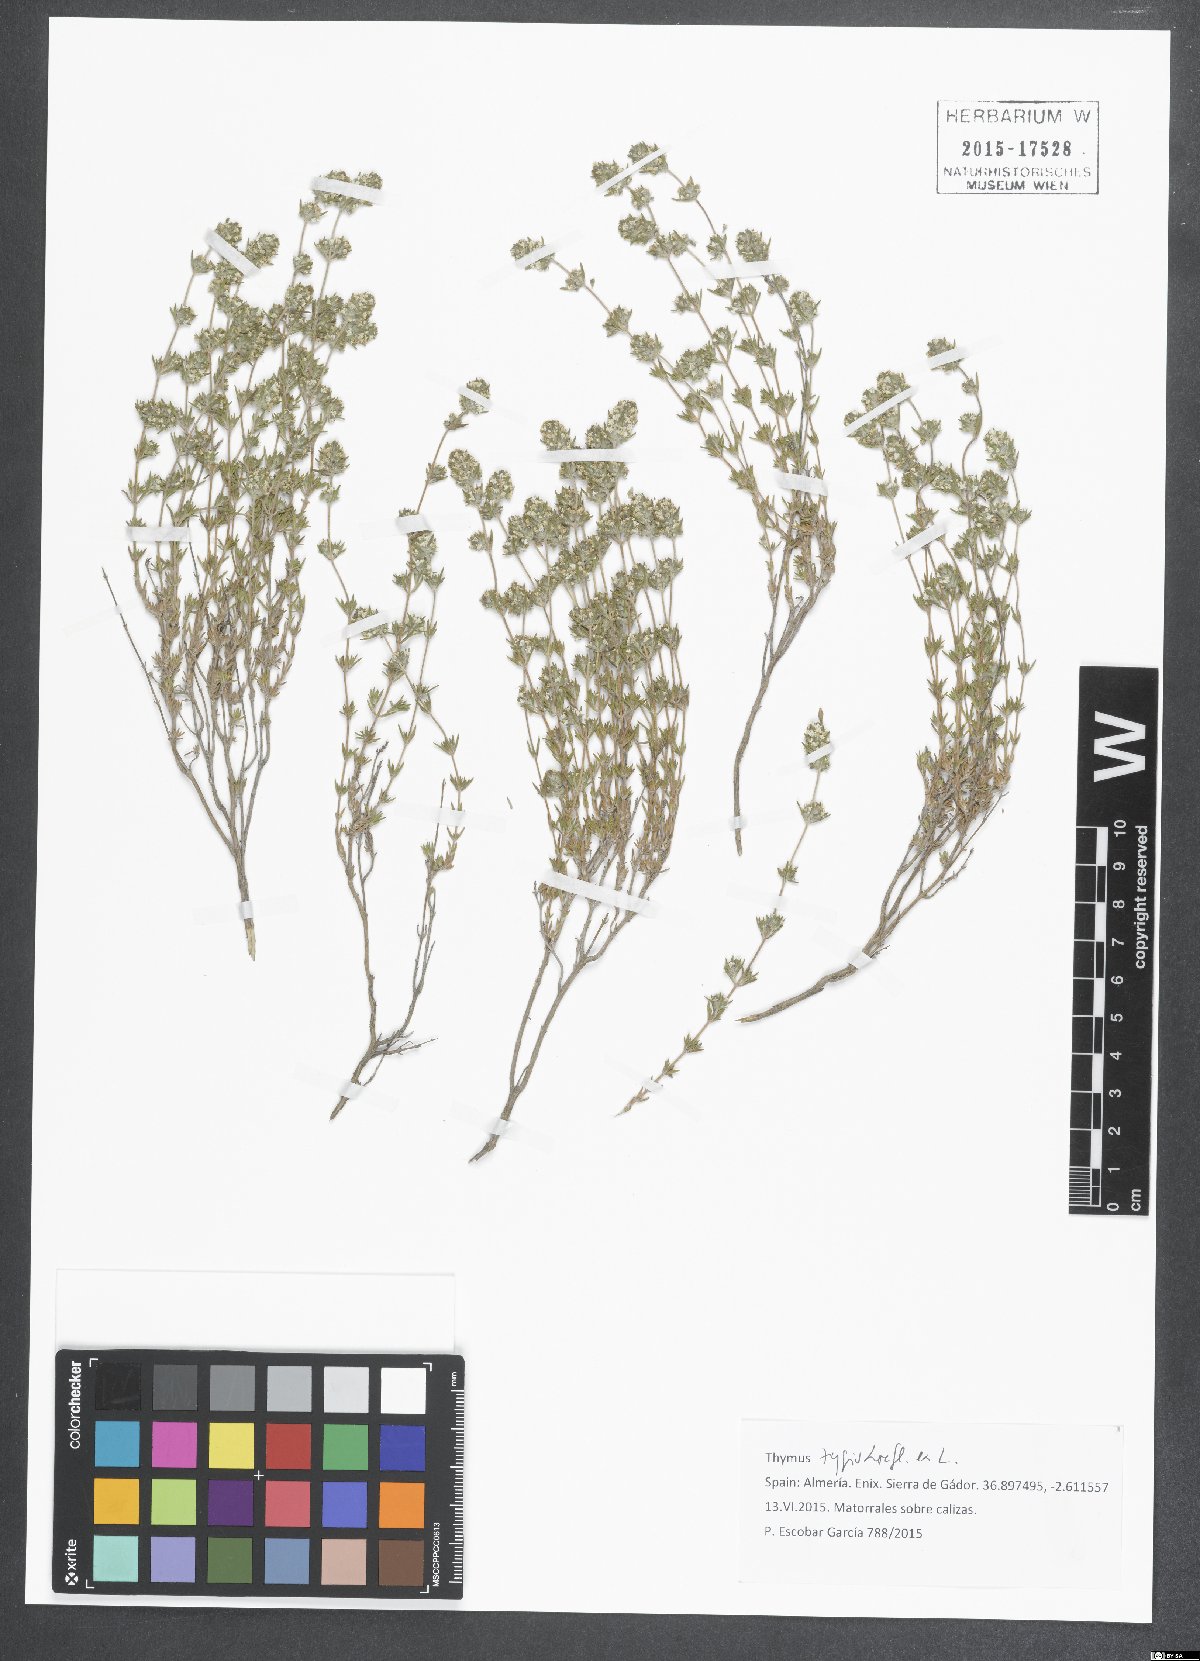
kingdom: Plantae
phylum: Tracheophyta
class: Magnoliopsida
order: Lamiales
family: Lamiaceae
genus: Thymus
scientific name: Thymus zygis
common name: White thyme
